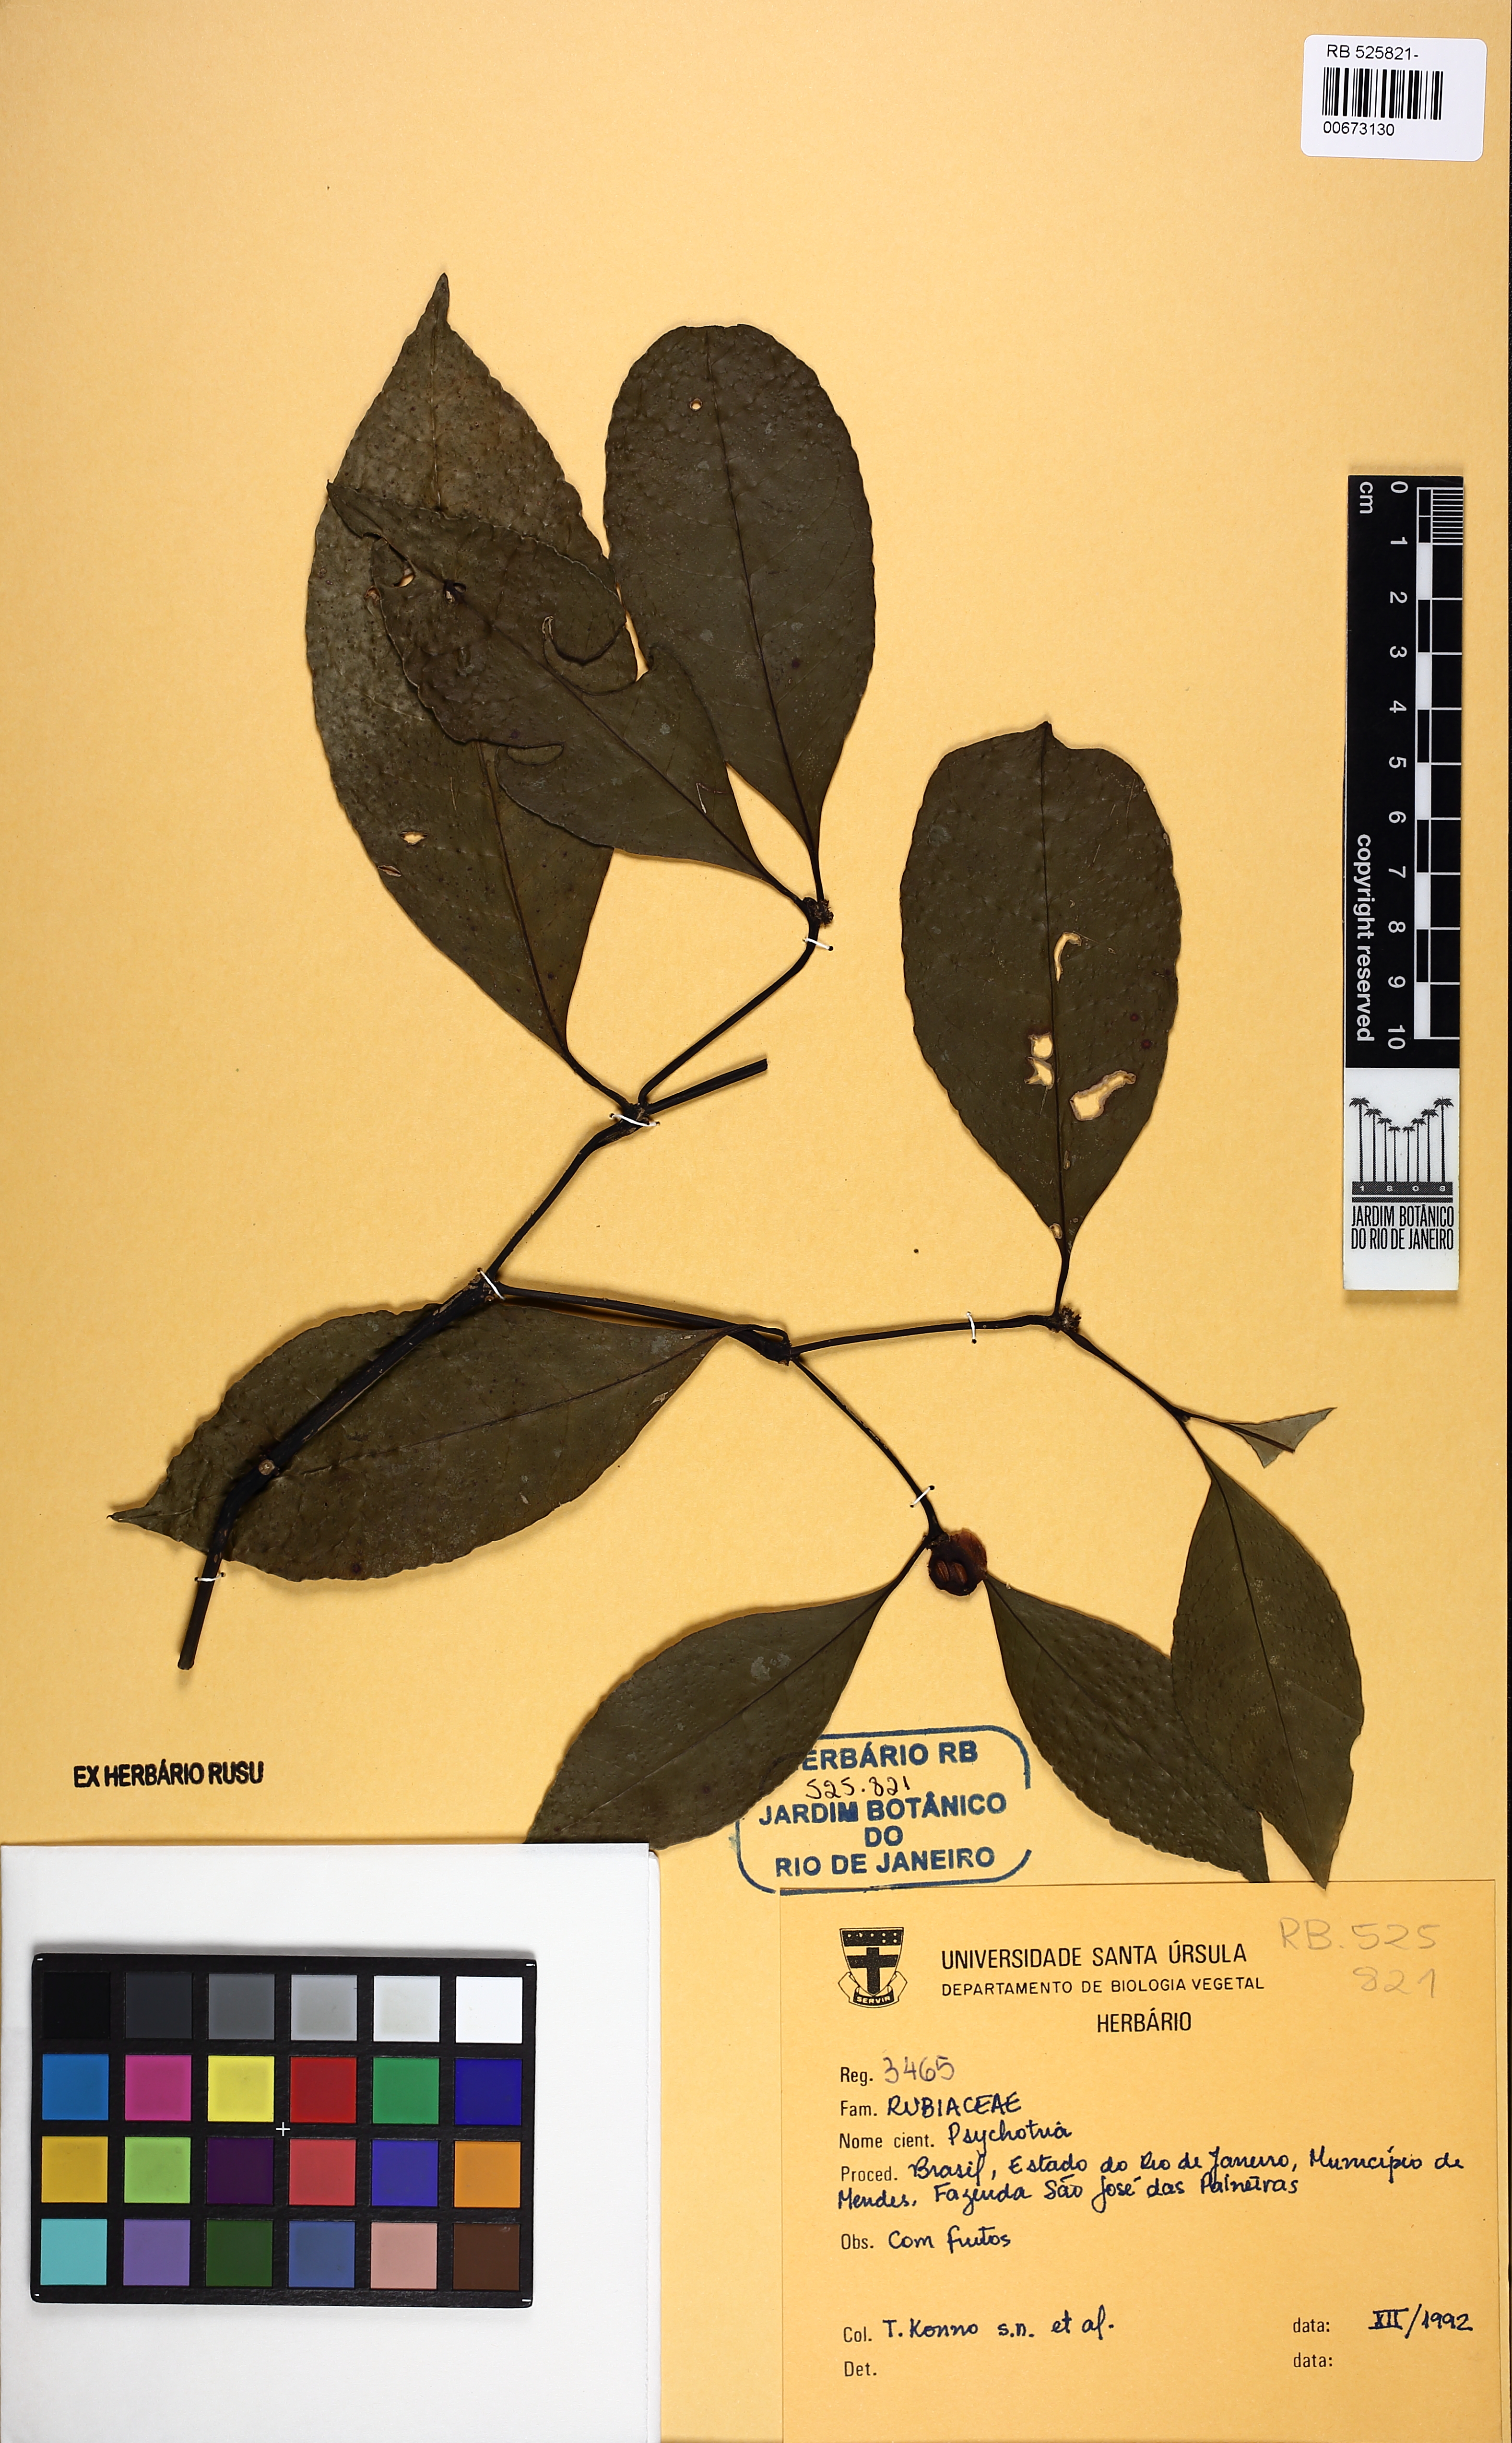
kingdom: Plantae
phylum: Tracheophyta
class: Magnoliopsida
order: Gentianales
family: Rubiaceae
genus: Eumachia
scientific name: Eumachia cephalantha
